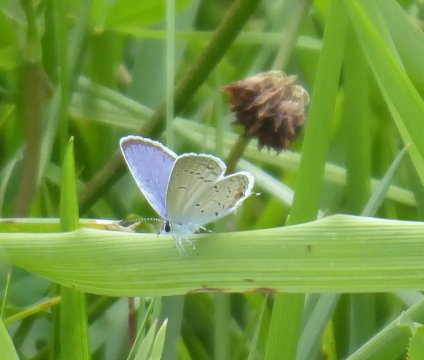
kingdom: Animalia
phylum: Arthropoda
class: Insecta
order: Lepidoptera
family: Lycaenidae
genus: Elkalyce
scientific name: Elkalyce comyntas
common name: Eastern Tailed-Blue
